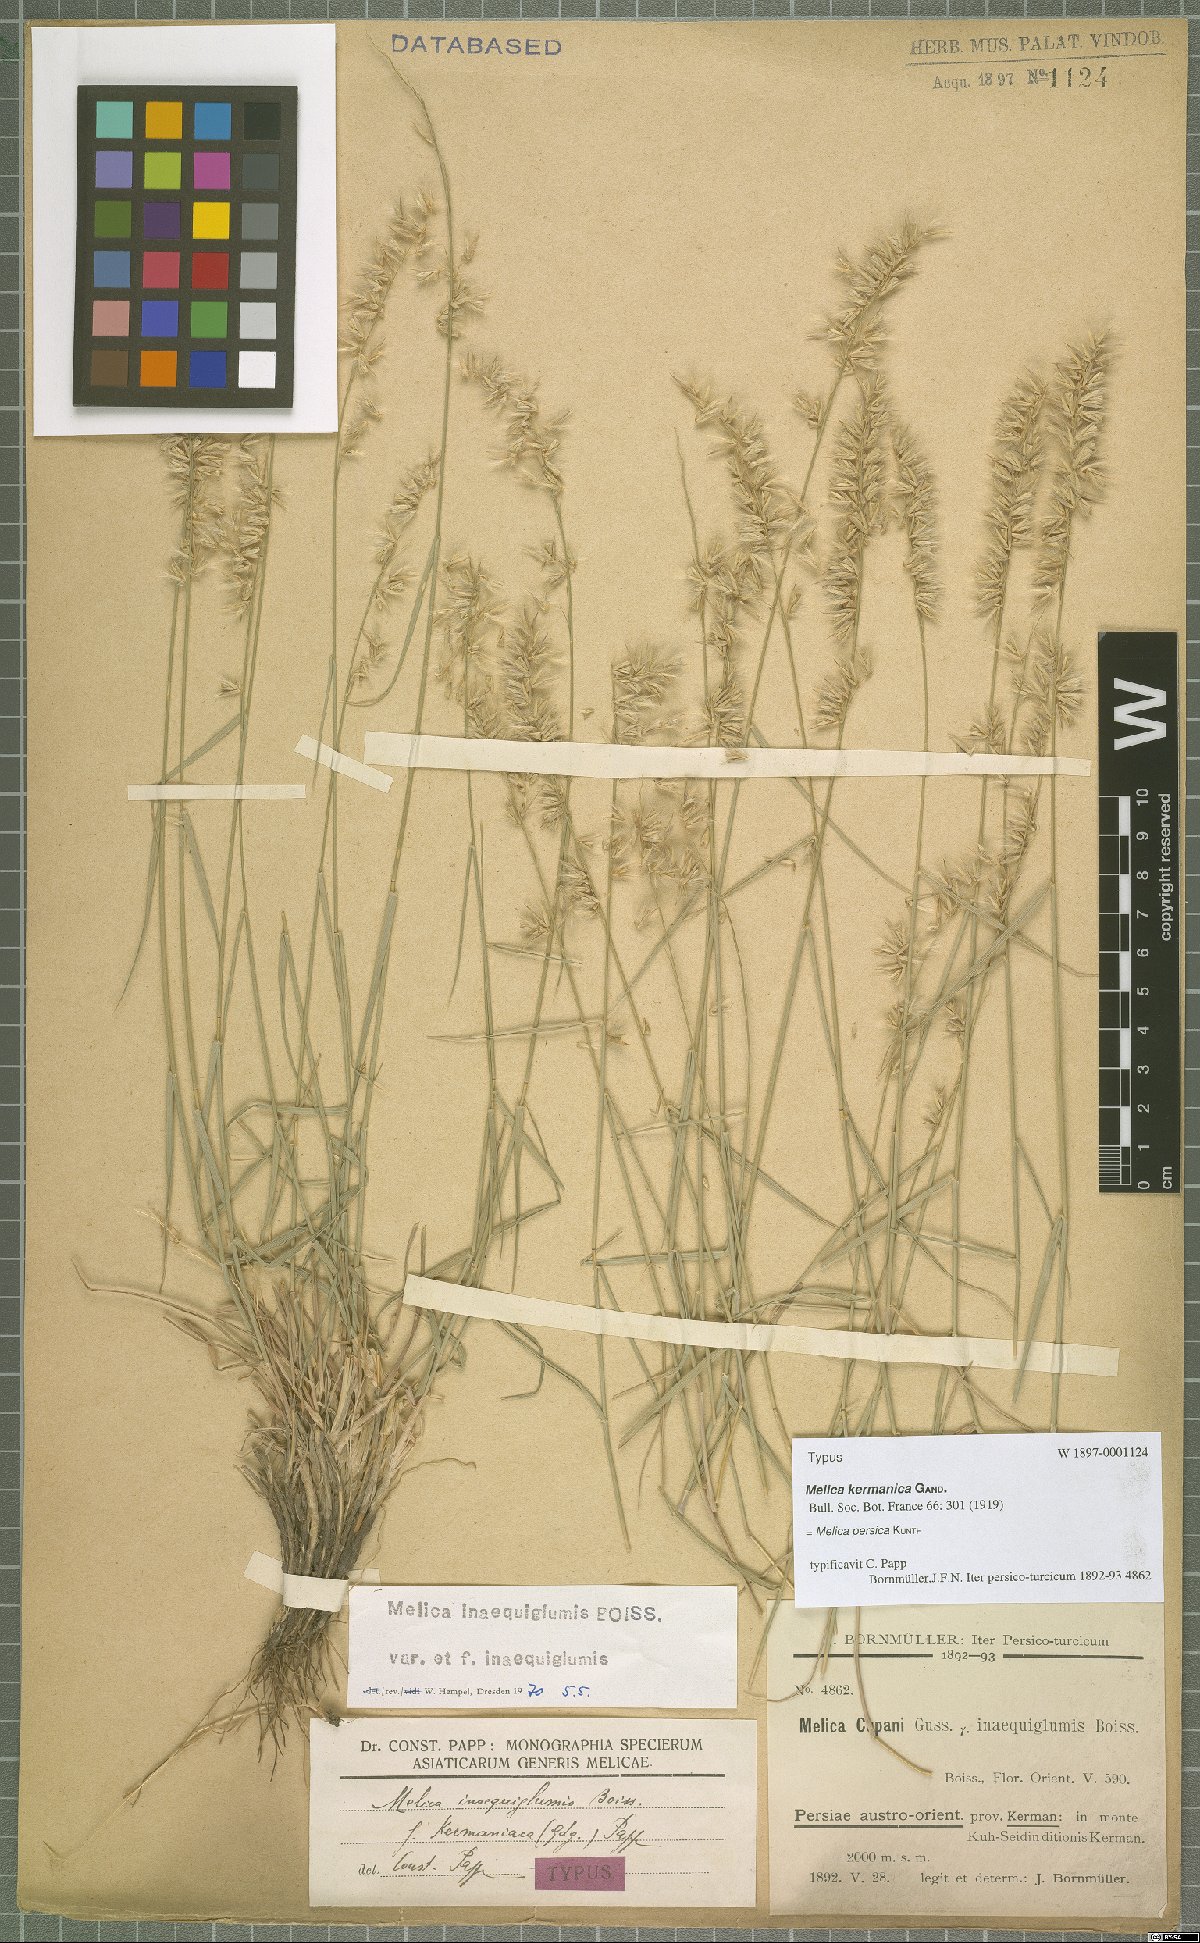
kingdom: Plantae
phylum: Tracheophyta
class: Liliopsida
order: Poales
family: Poaceae
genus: Melica
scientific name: Melica persica
